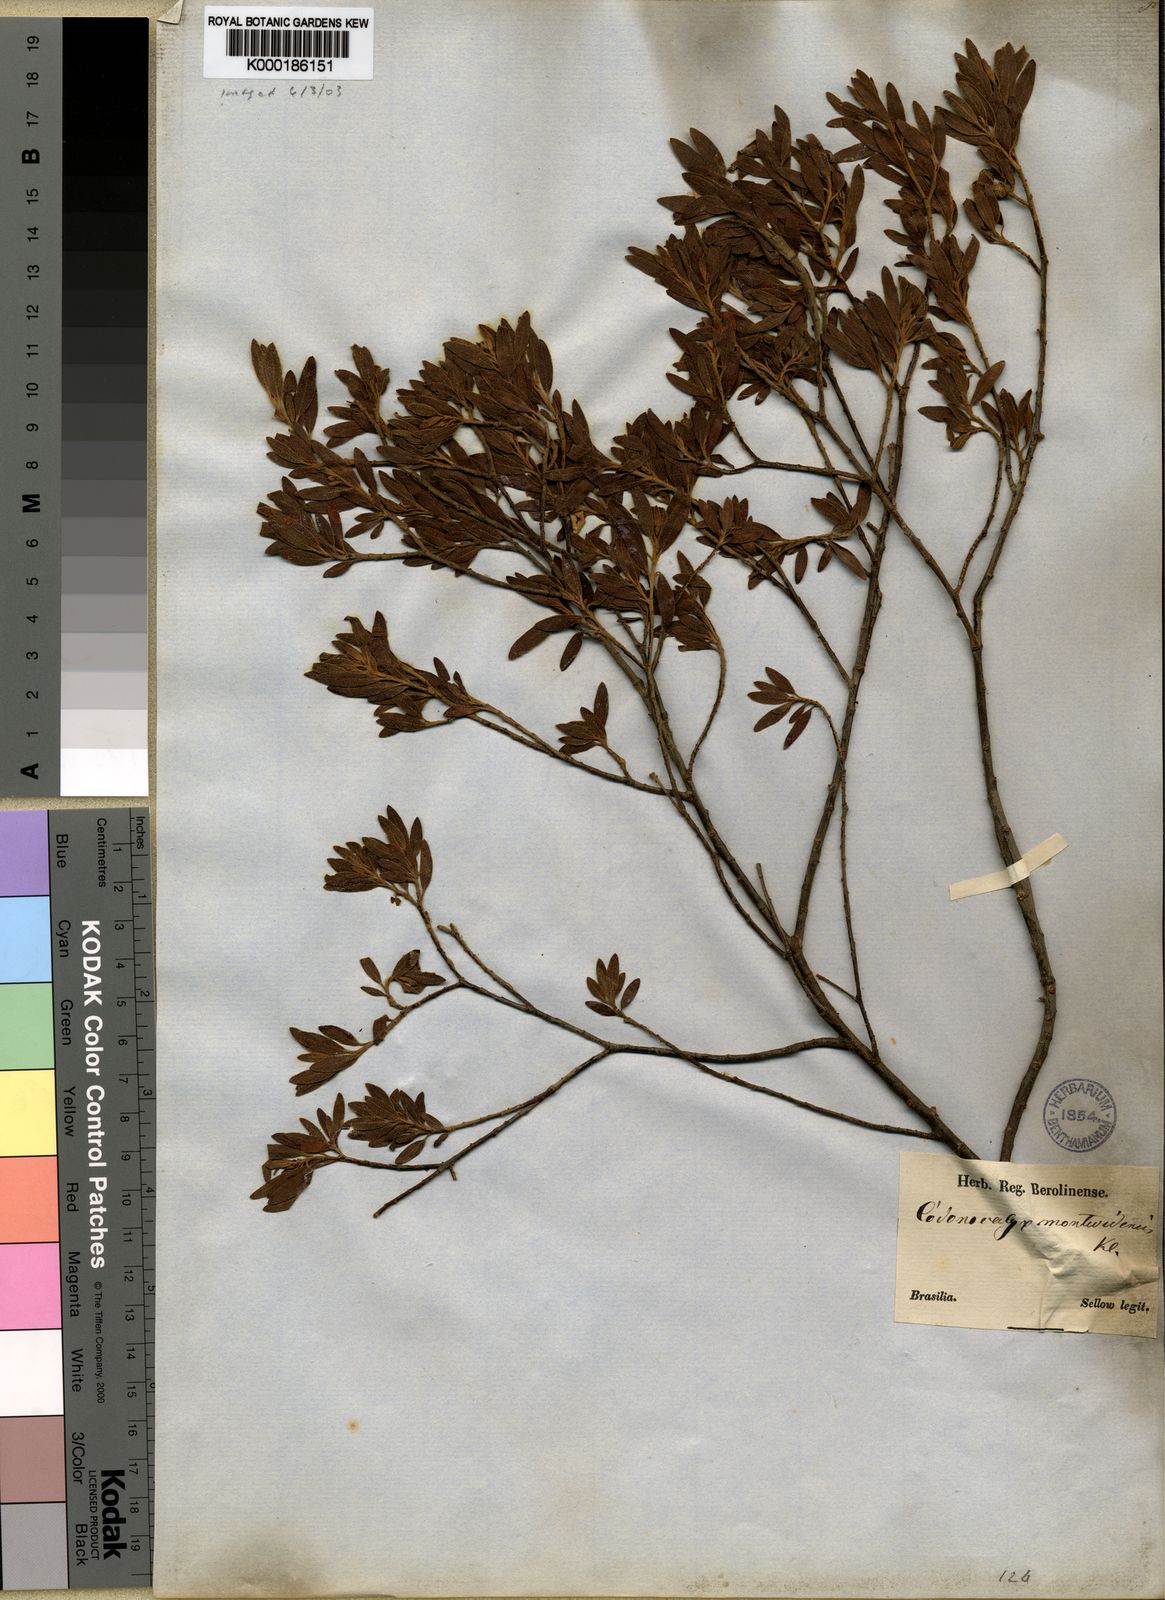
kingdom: Plantae
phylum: Tracheophyta
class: Magnoliopsida
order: Malpighiales
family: Euphorbiaceae
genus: Croton
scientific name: Croton montevidensis
